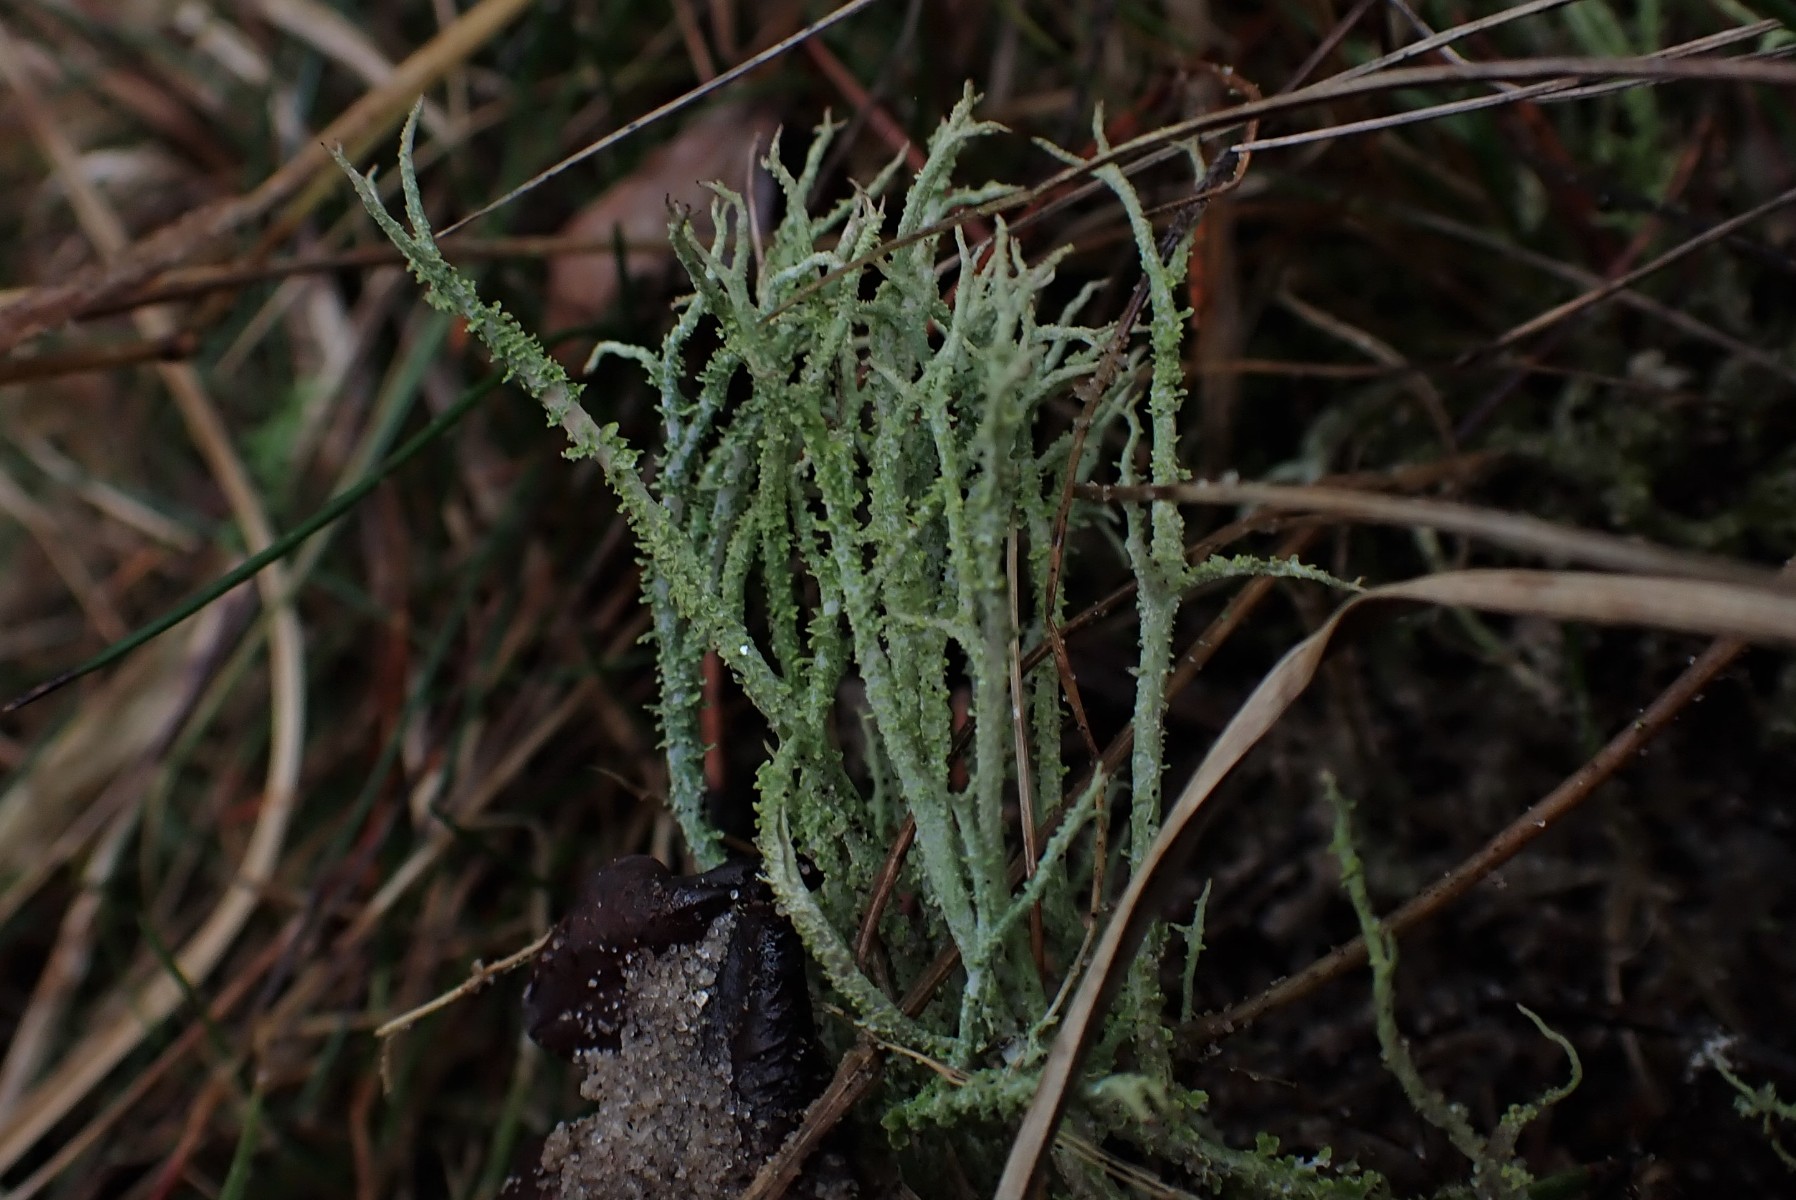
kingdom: Fungi
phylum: Ascomycota
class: Lecanoromycetes
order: Lecanorales
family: Cladoniaceae
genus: Cladonia
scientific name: Cladonia scabriuscula
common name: ru bægerlav
